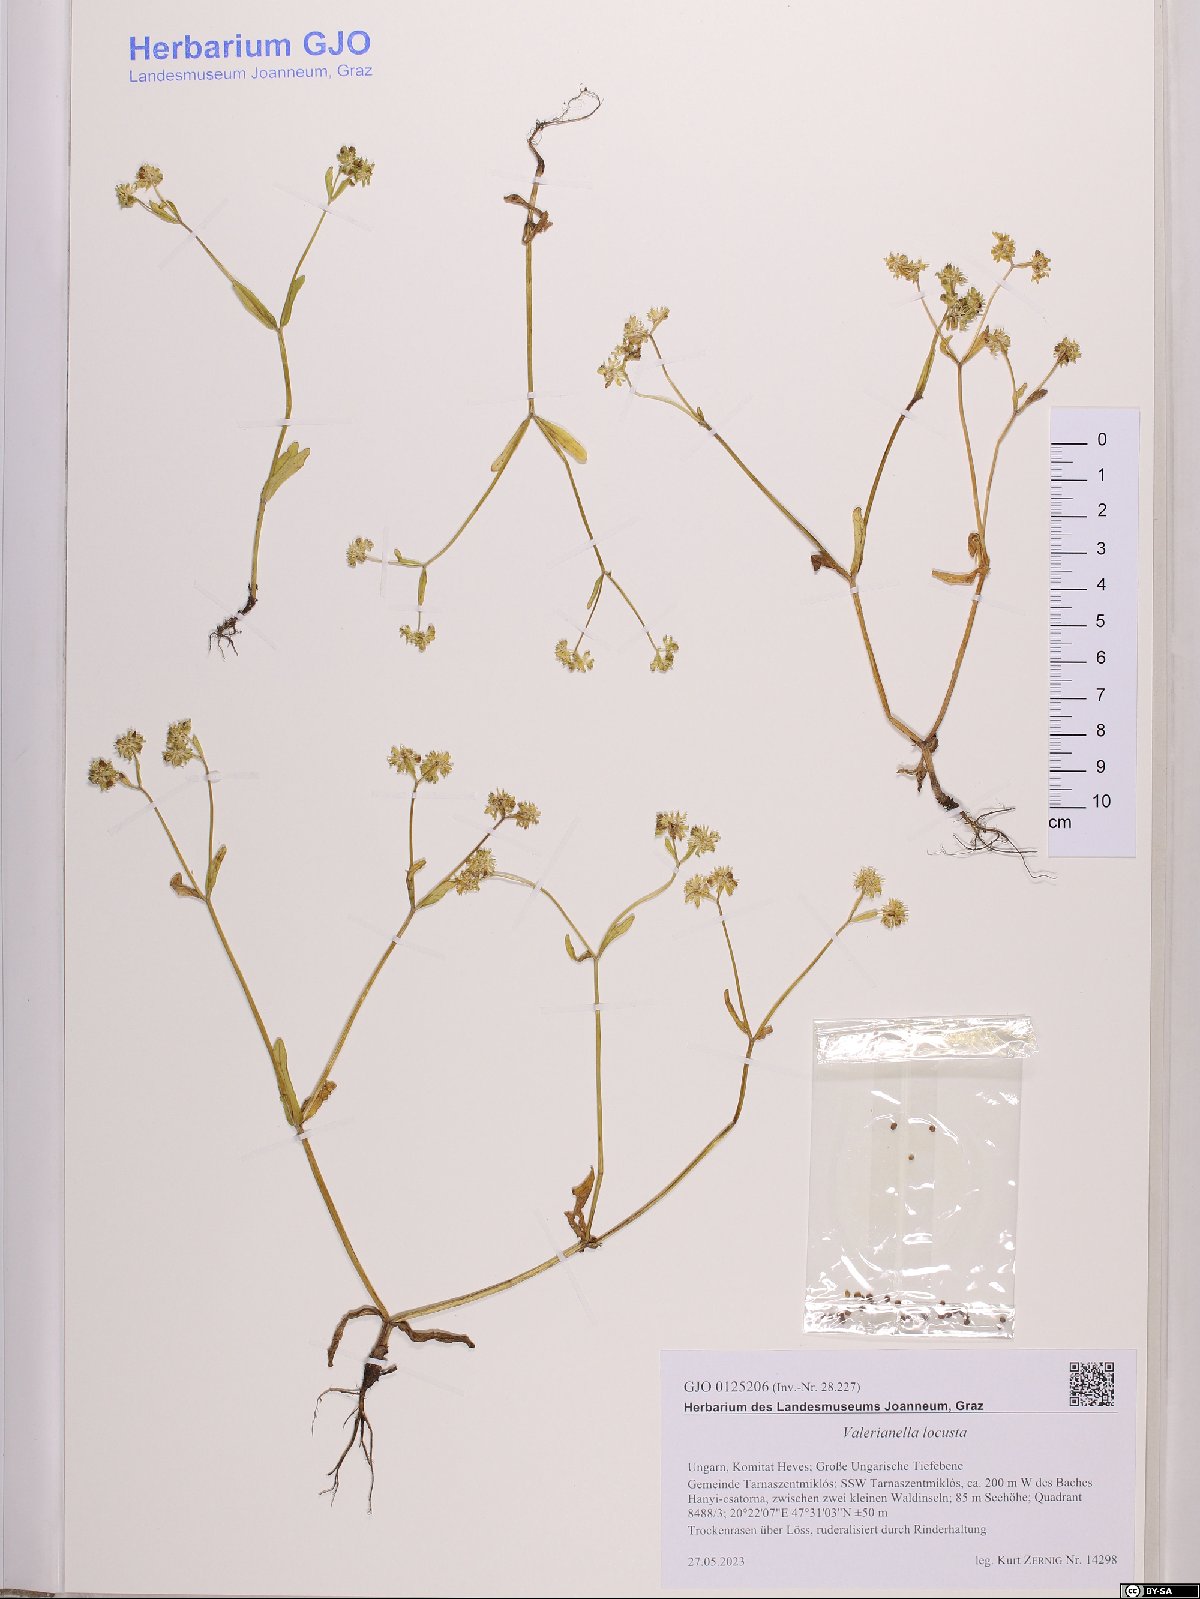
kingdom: Plantae
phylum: Tracheophyta
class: Magnoliopsida
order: Dipsacales
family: Caprifoliaceae
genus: Valerianella
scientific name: Valerianella locusta
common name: Common cornsalad
